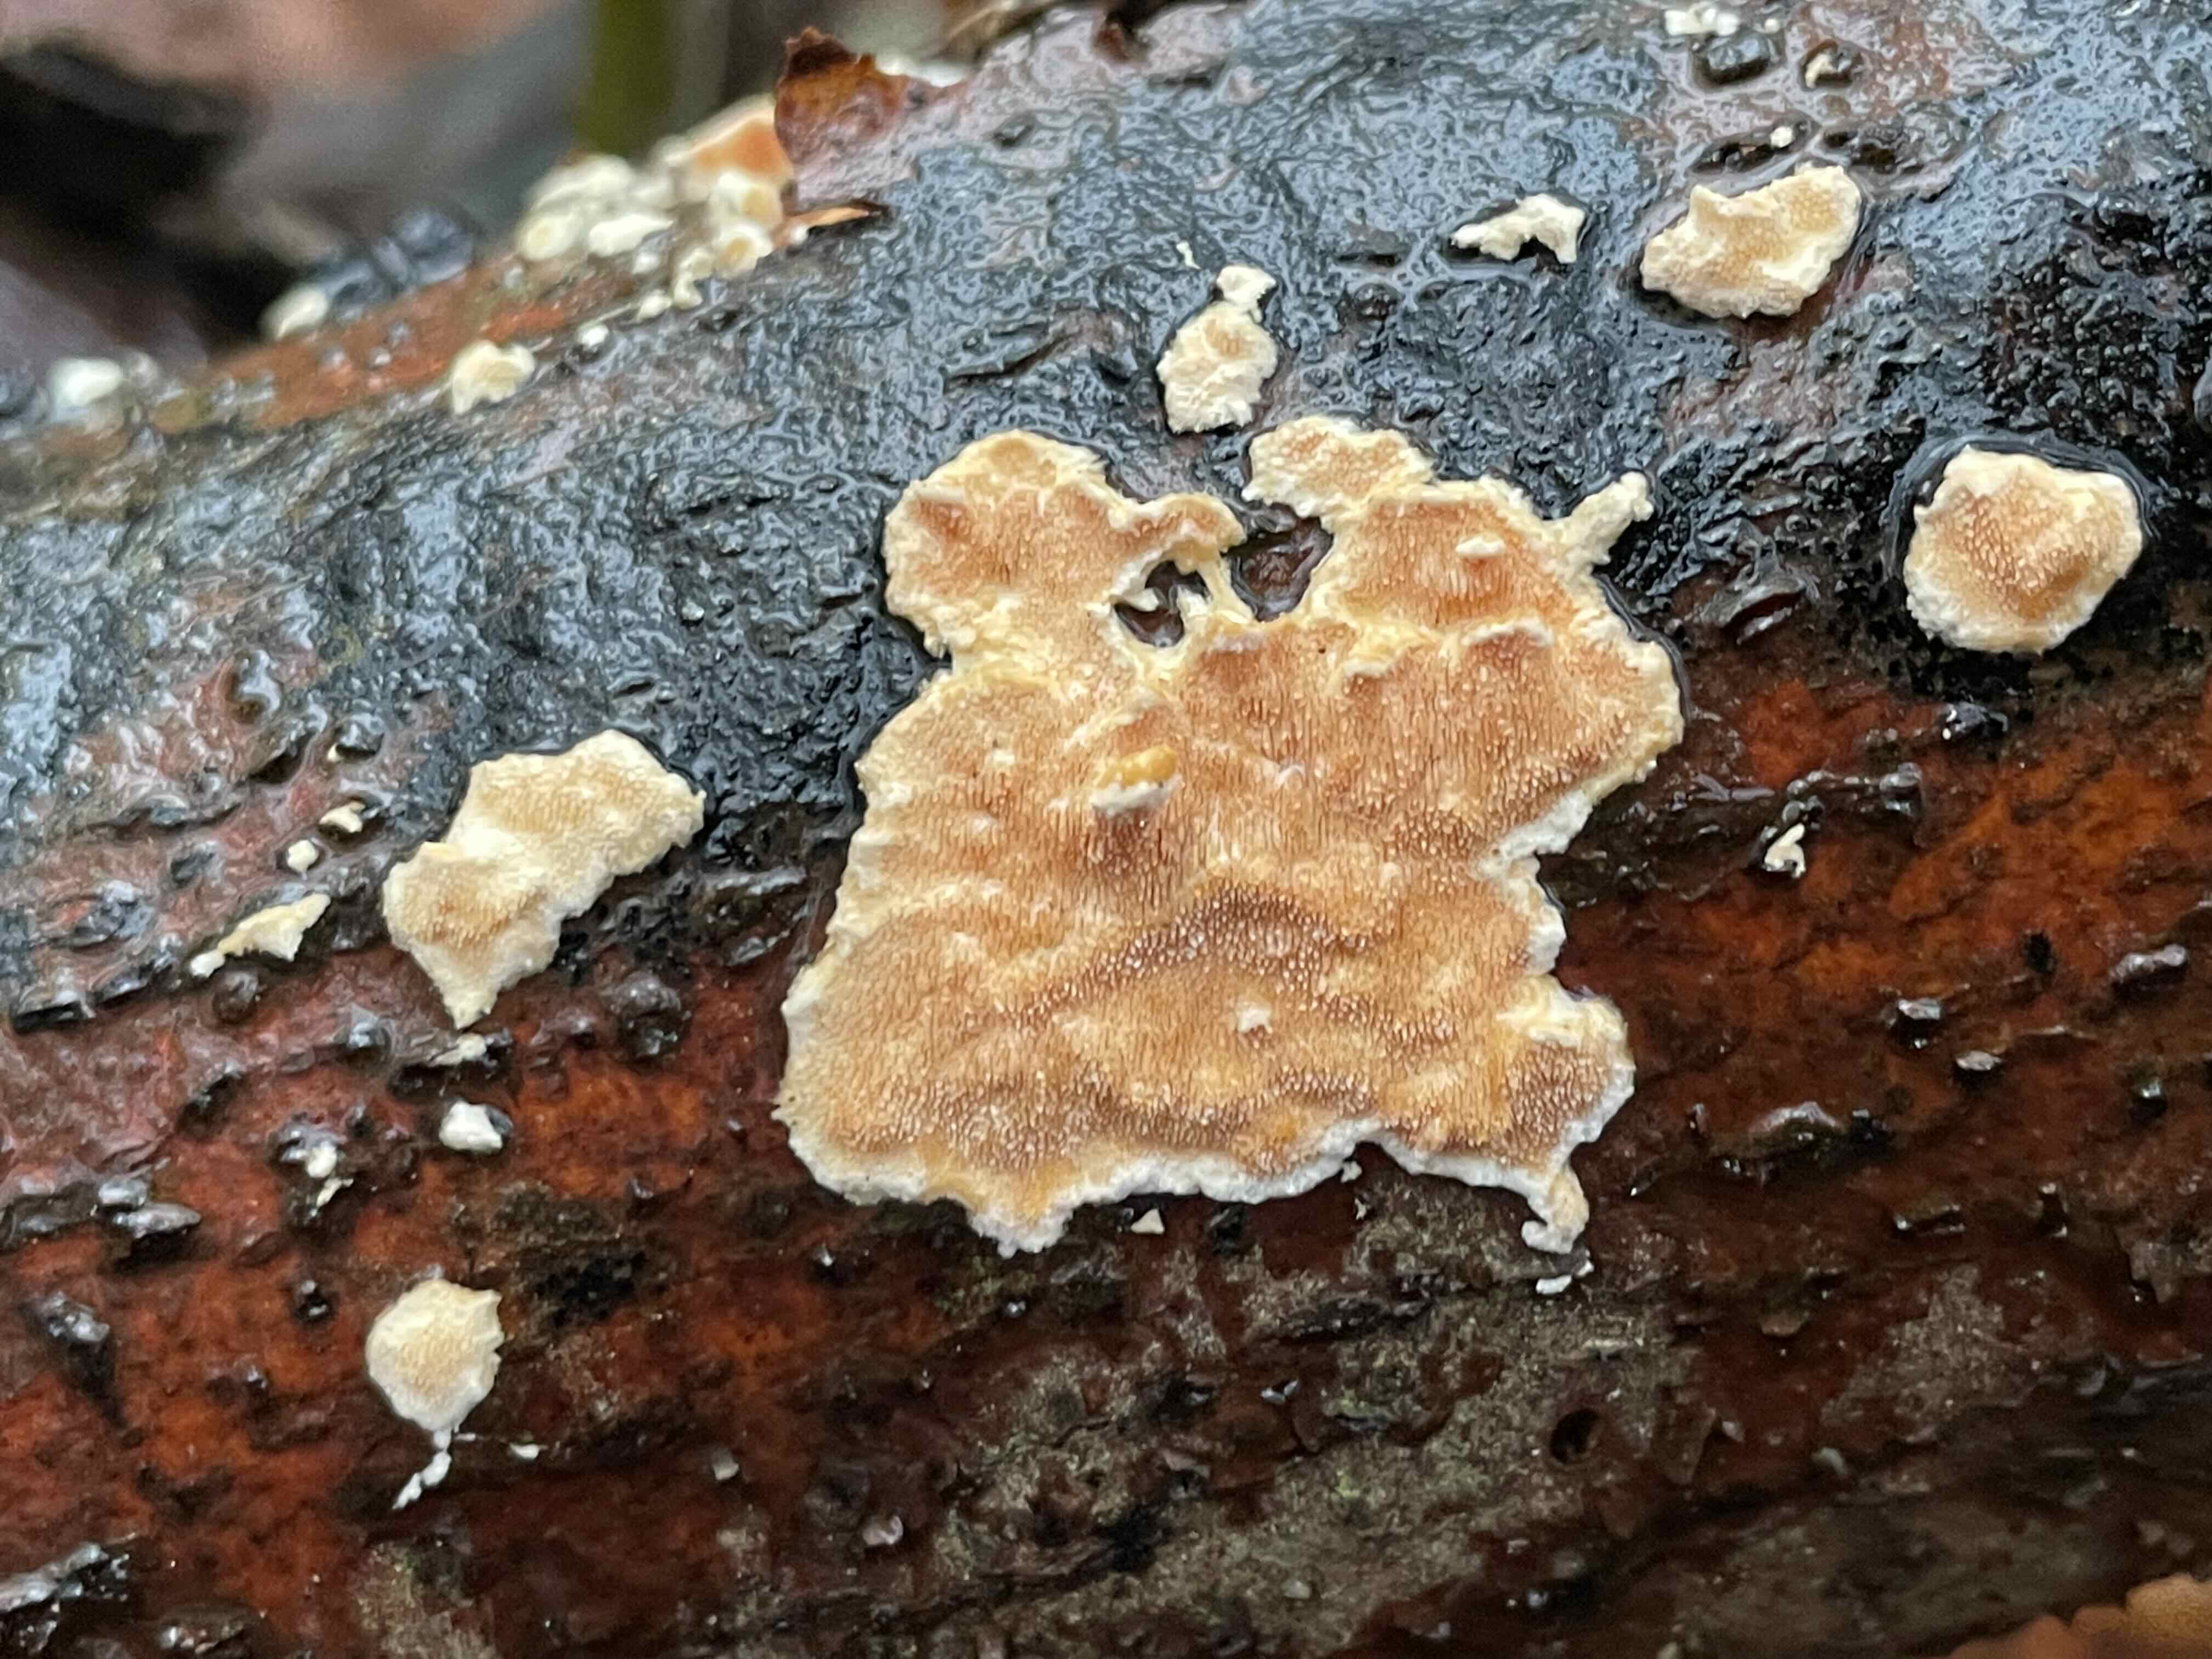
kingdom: Fungi
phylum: Basidiomycota
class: Agaricomycetes
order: Polyporales
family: Steccherinaceae
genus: Steccherinum
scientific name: Steccherinum ochraceum
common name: almindelig skønpig
